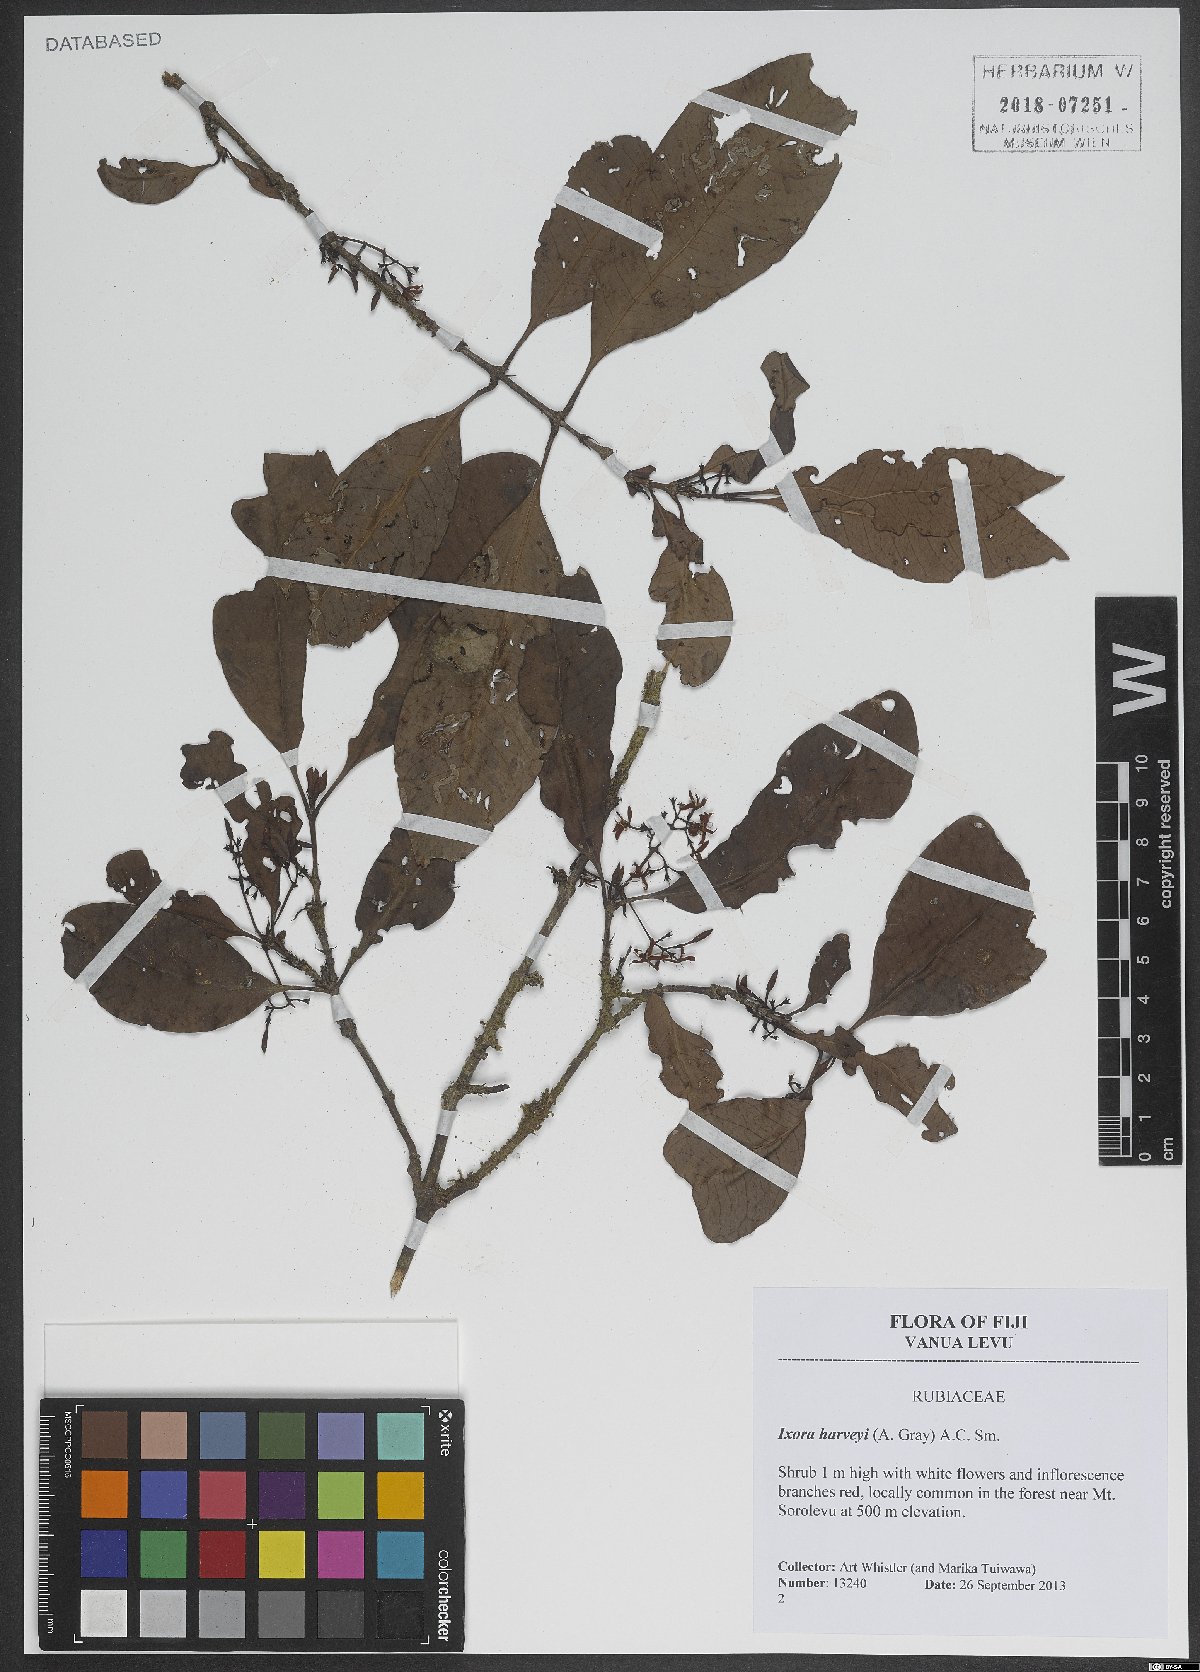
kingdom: Plantae
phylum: Tracheophyta
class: Magnoliopsida
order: Gentianales
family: Rubiaceae
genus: Ixora
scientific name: Ixora harveyi
